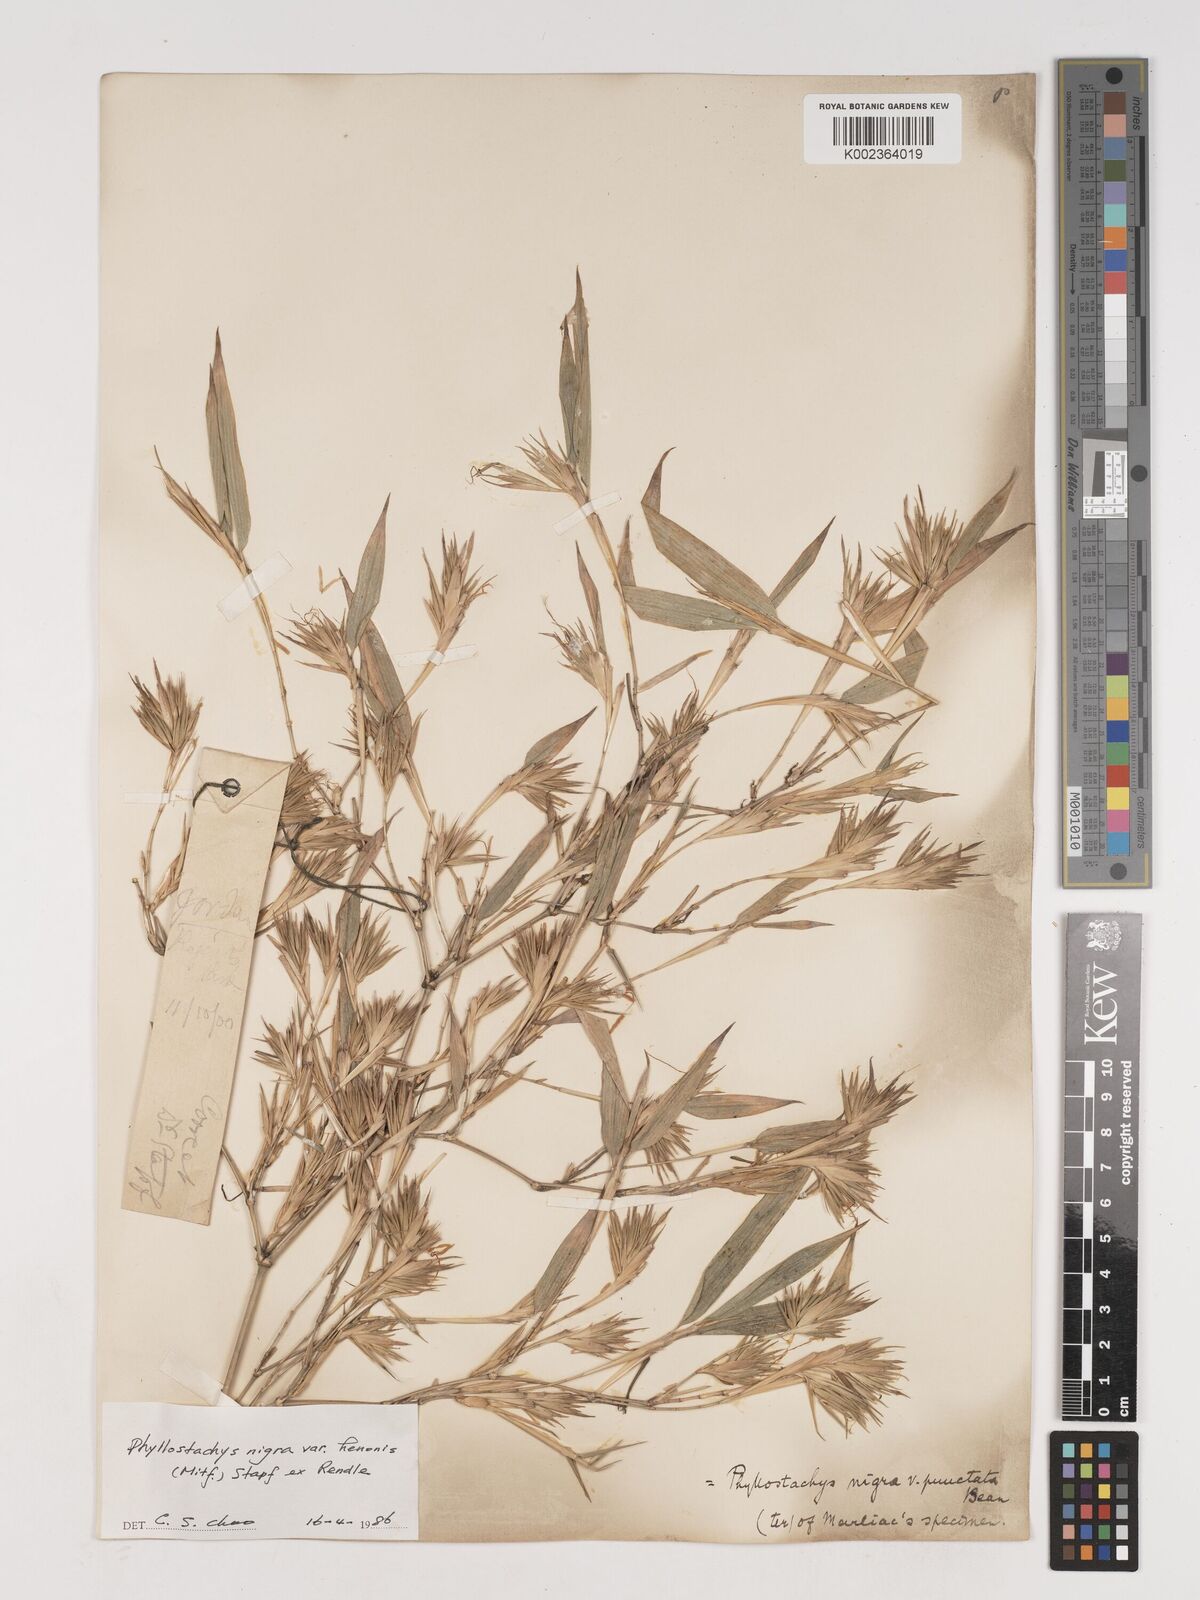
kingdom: Plantae
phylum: Tracheophyta
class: Liliopsida
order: Poales
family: Poaceae
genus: Phyllostachys
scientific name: Phyllostachys nigra
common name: Black bamboo
